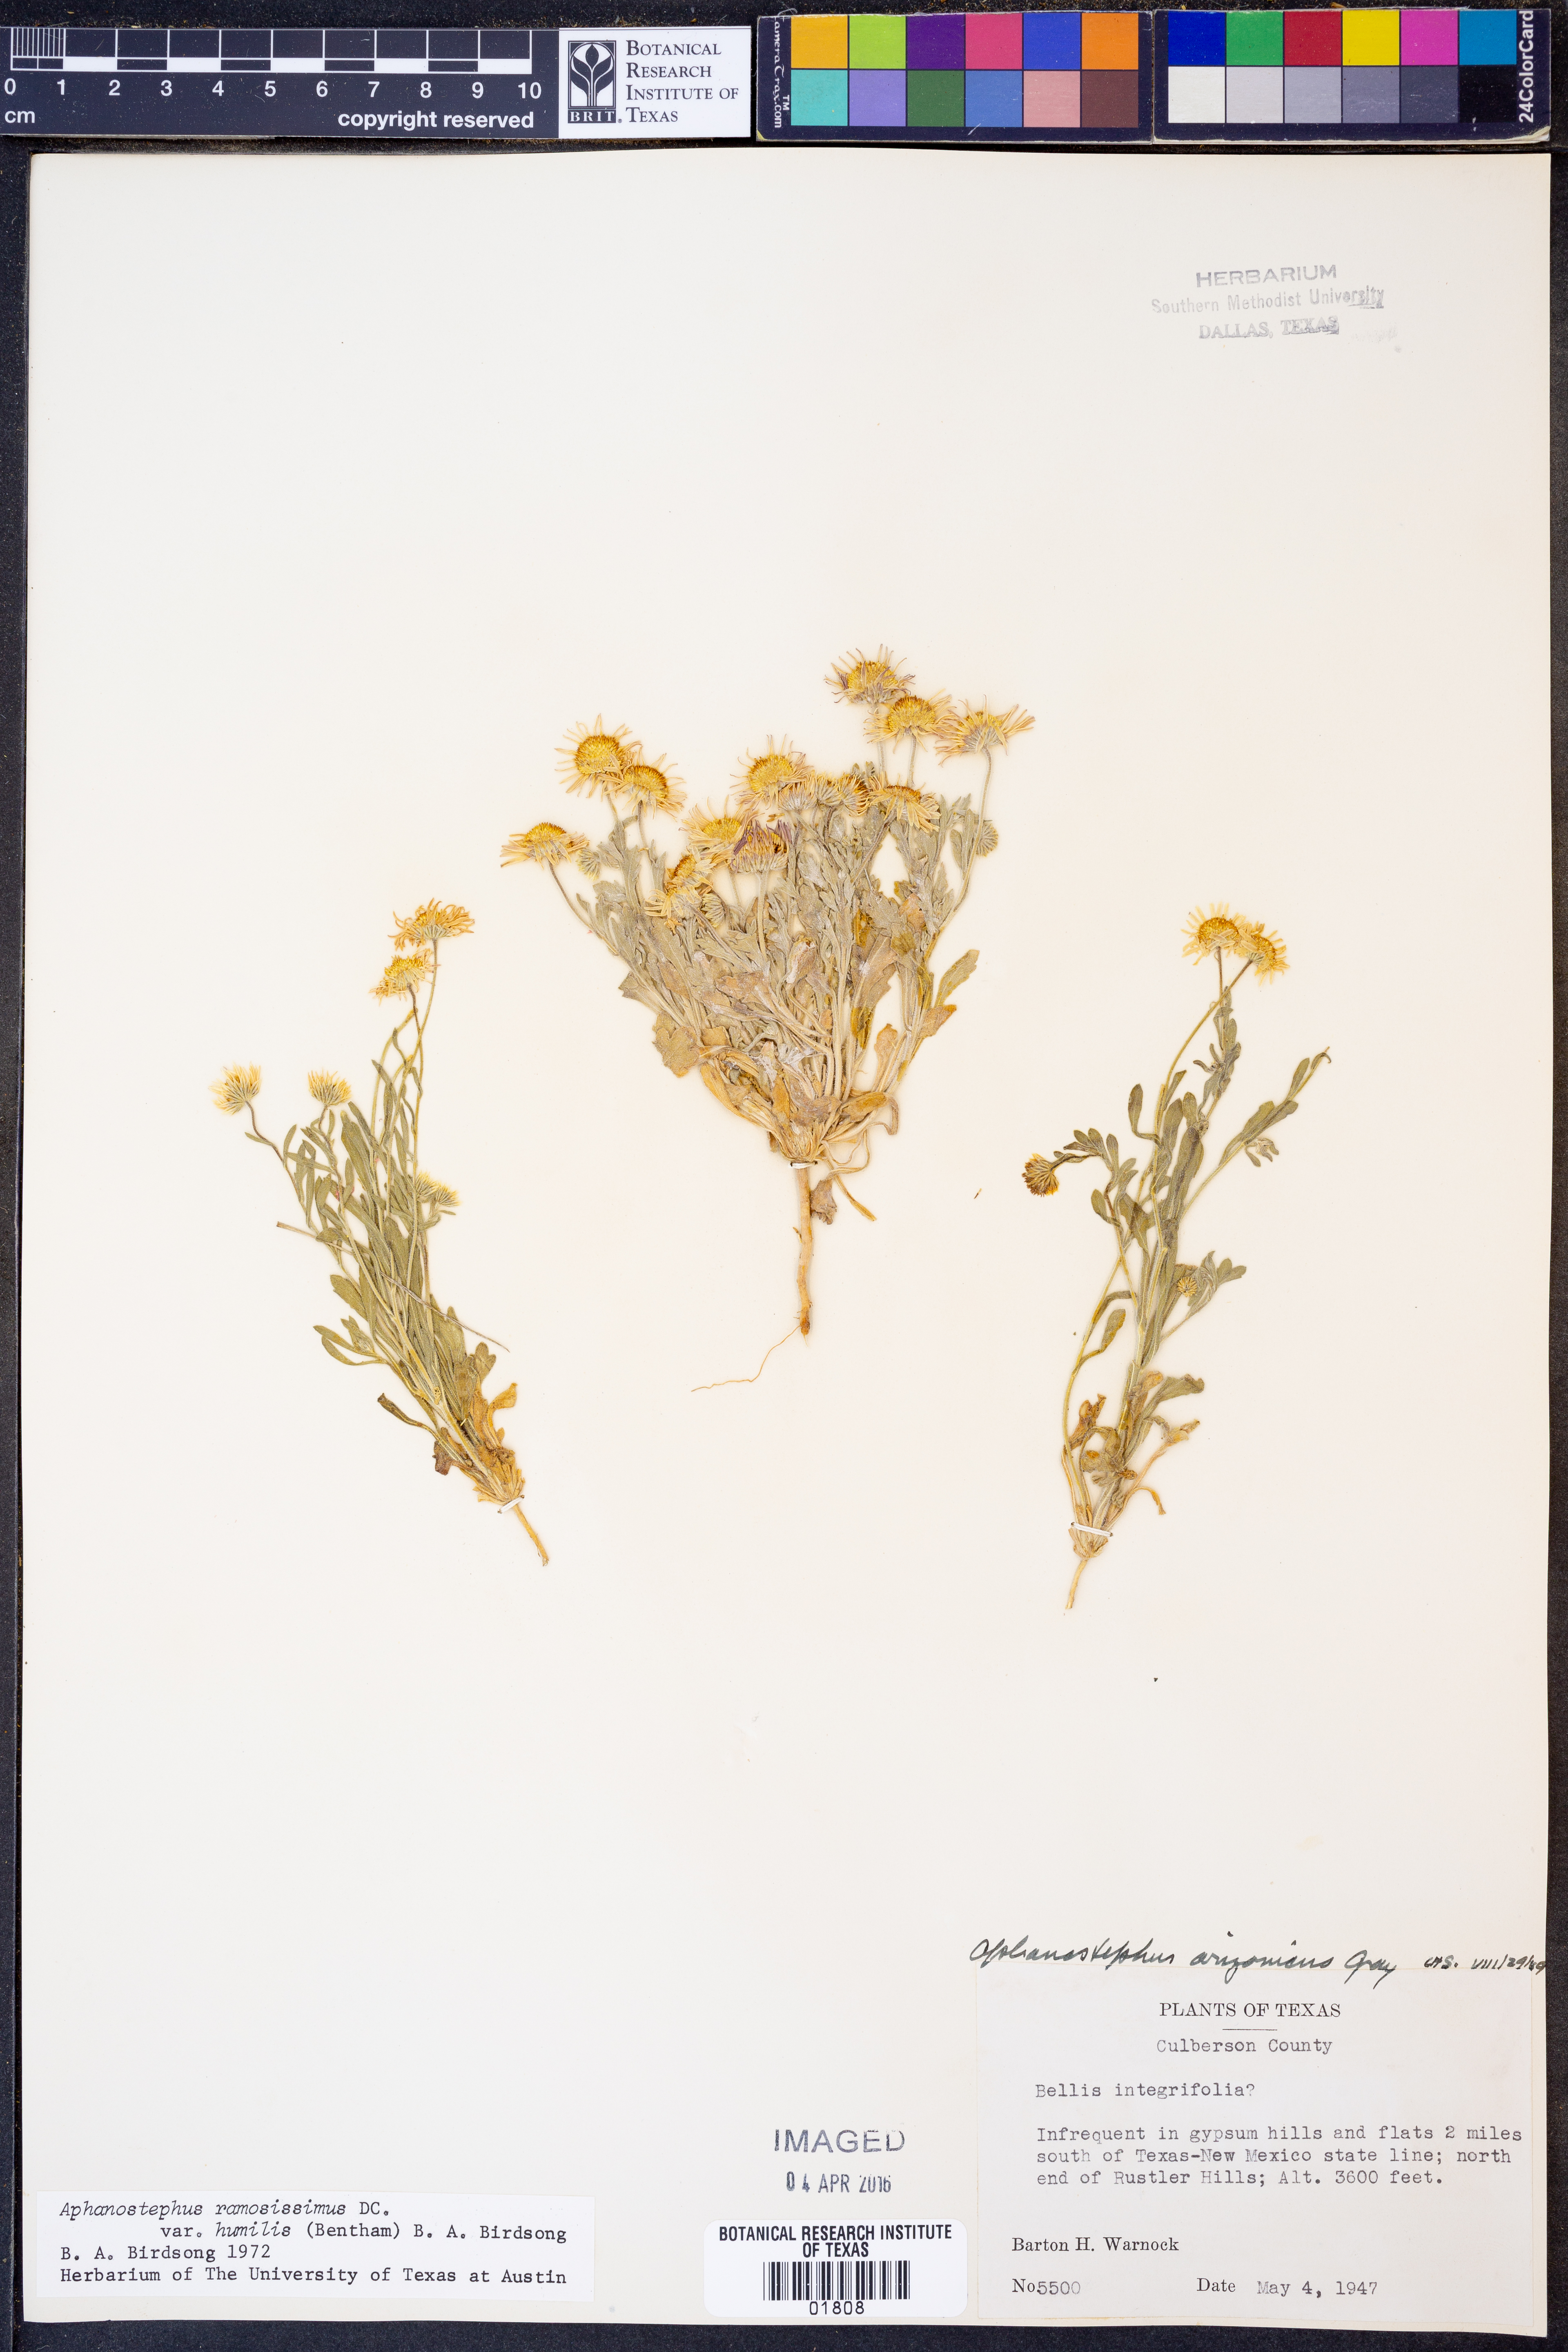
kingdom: Plantae
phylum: Tracheophyta
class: Magnoliopsida
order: Asterales
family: Asteraceae
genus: Aphanostephus
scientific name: Aphanostephus ramosissimus
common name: Plains lazy daisy
